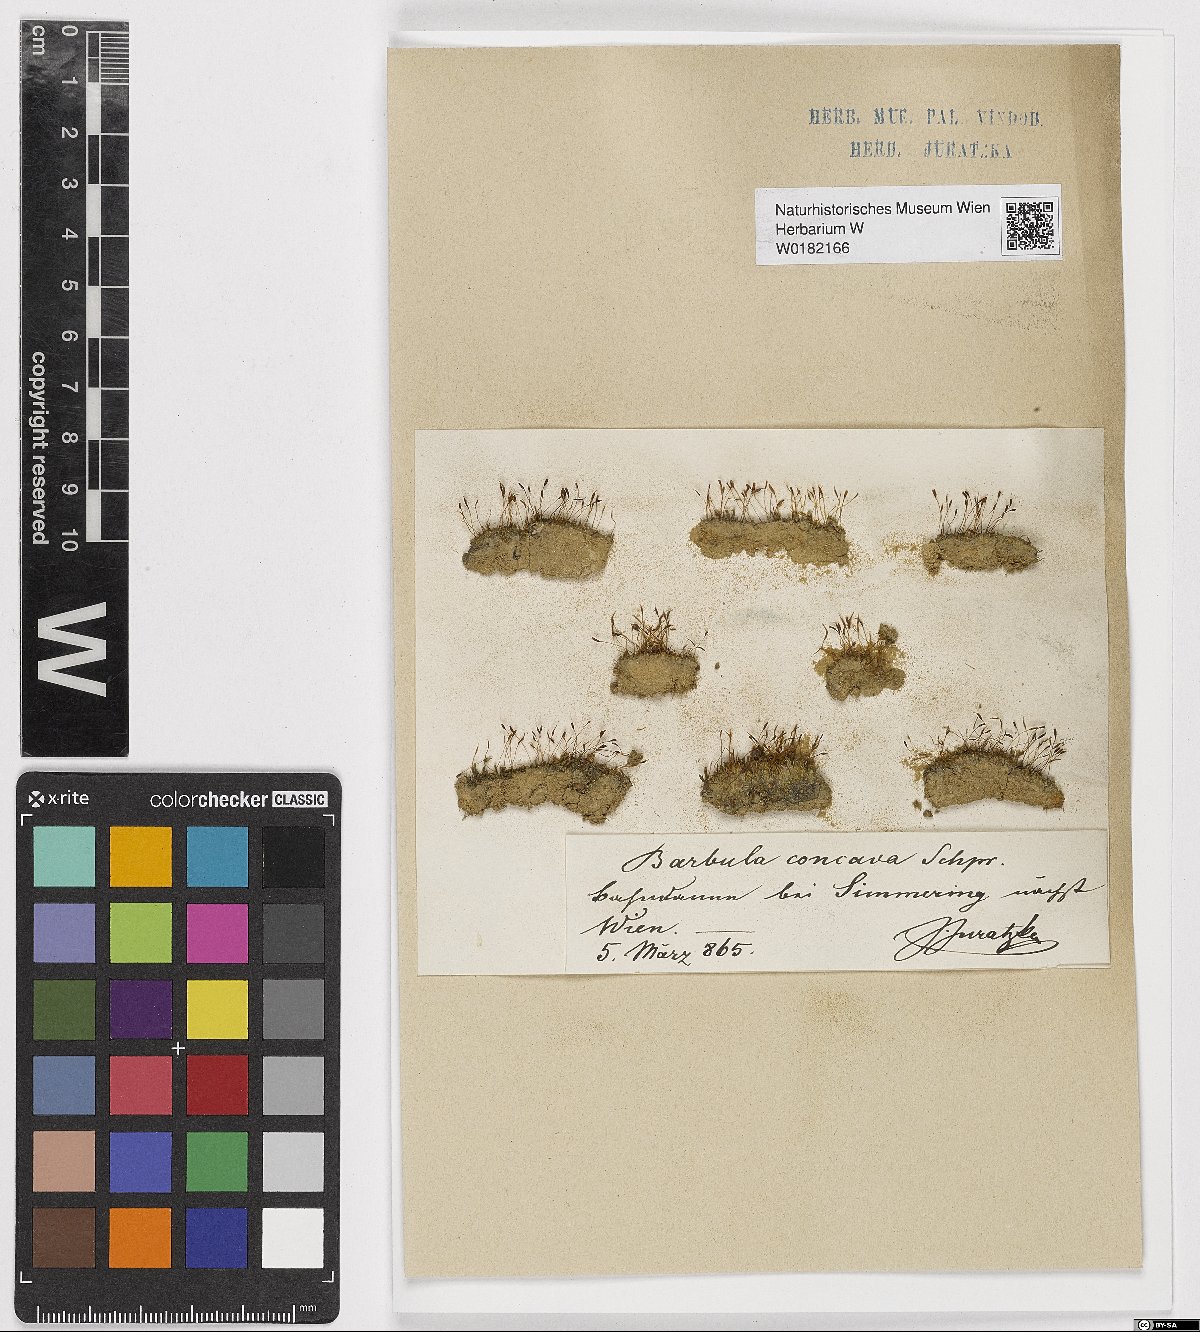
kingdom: Plantae
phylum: Bryophyta
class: Bryopsida
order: Pottiales
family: Pottiaceae
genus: Tortula
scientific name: Tortula cuneifolia
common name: Wedge-leaved screw-moss
